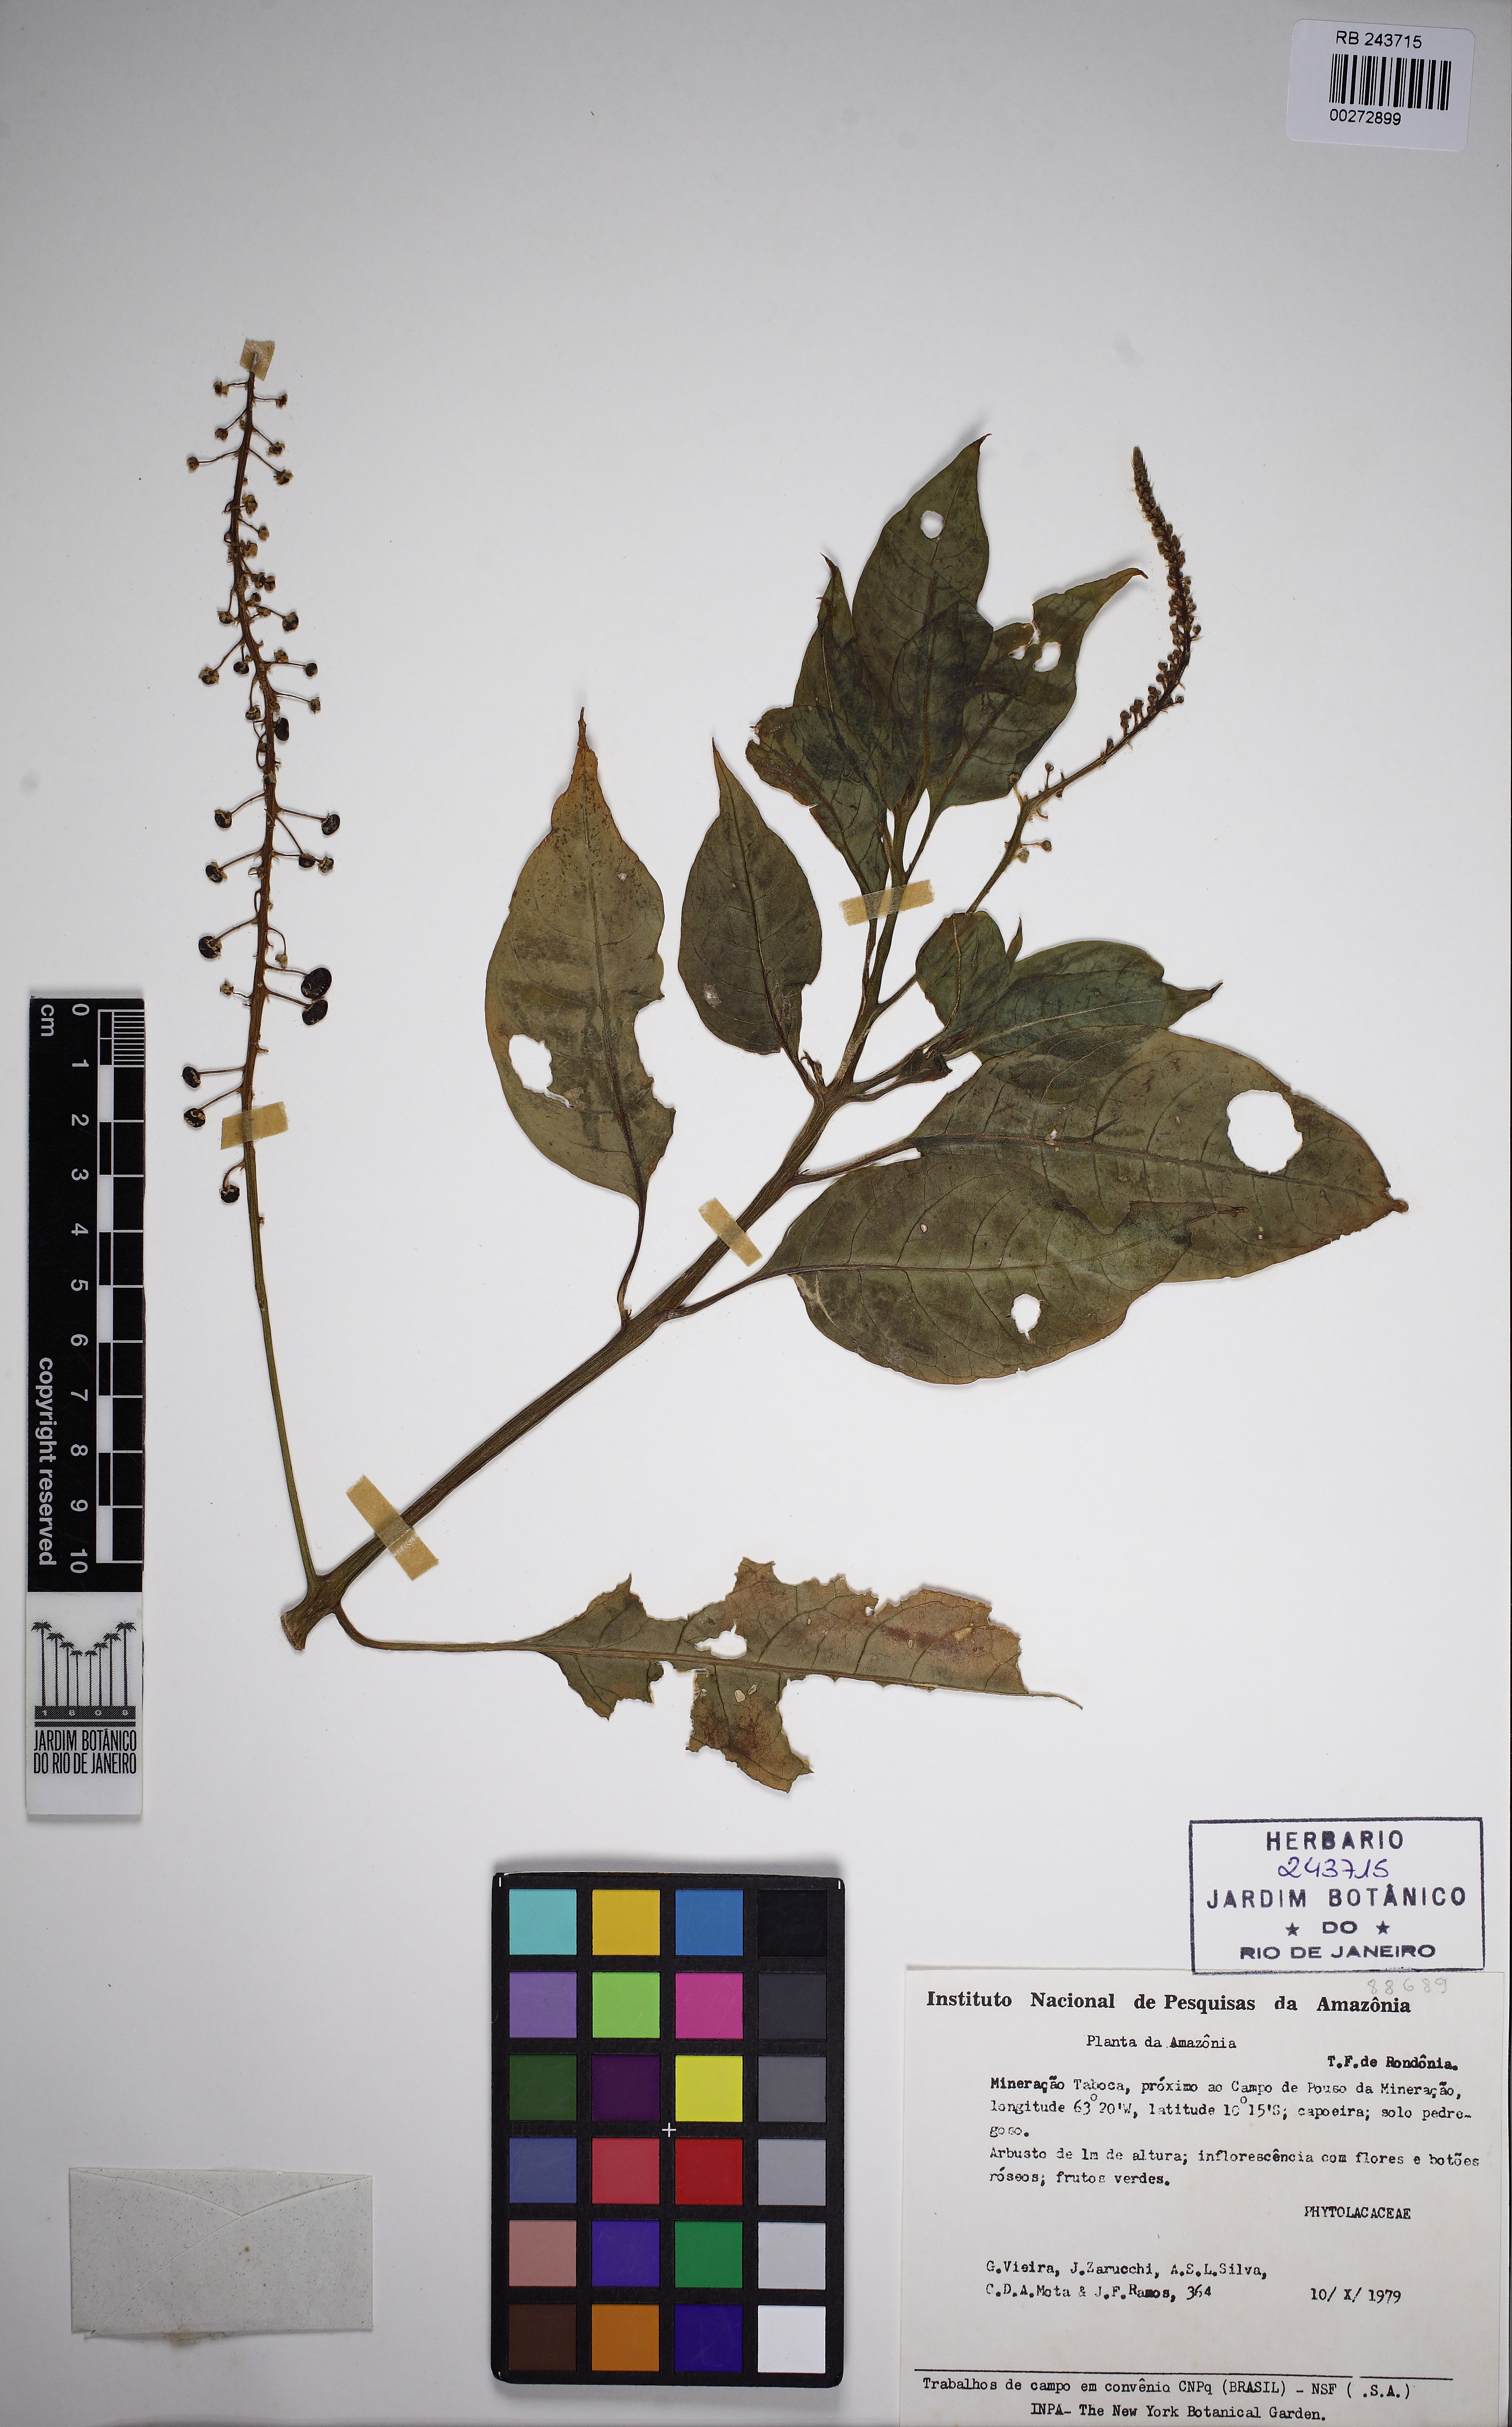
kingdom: Plantae
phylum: Tracheophyta
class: Magnoliopsida
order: Caryophyllales
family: Phytolaccaceae
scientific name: Phytolaccaceae
